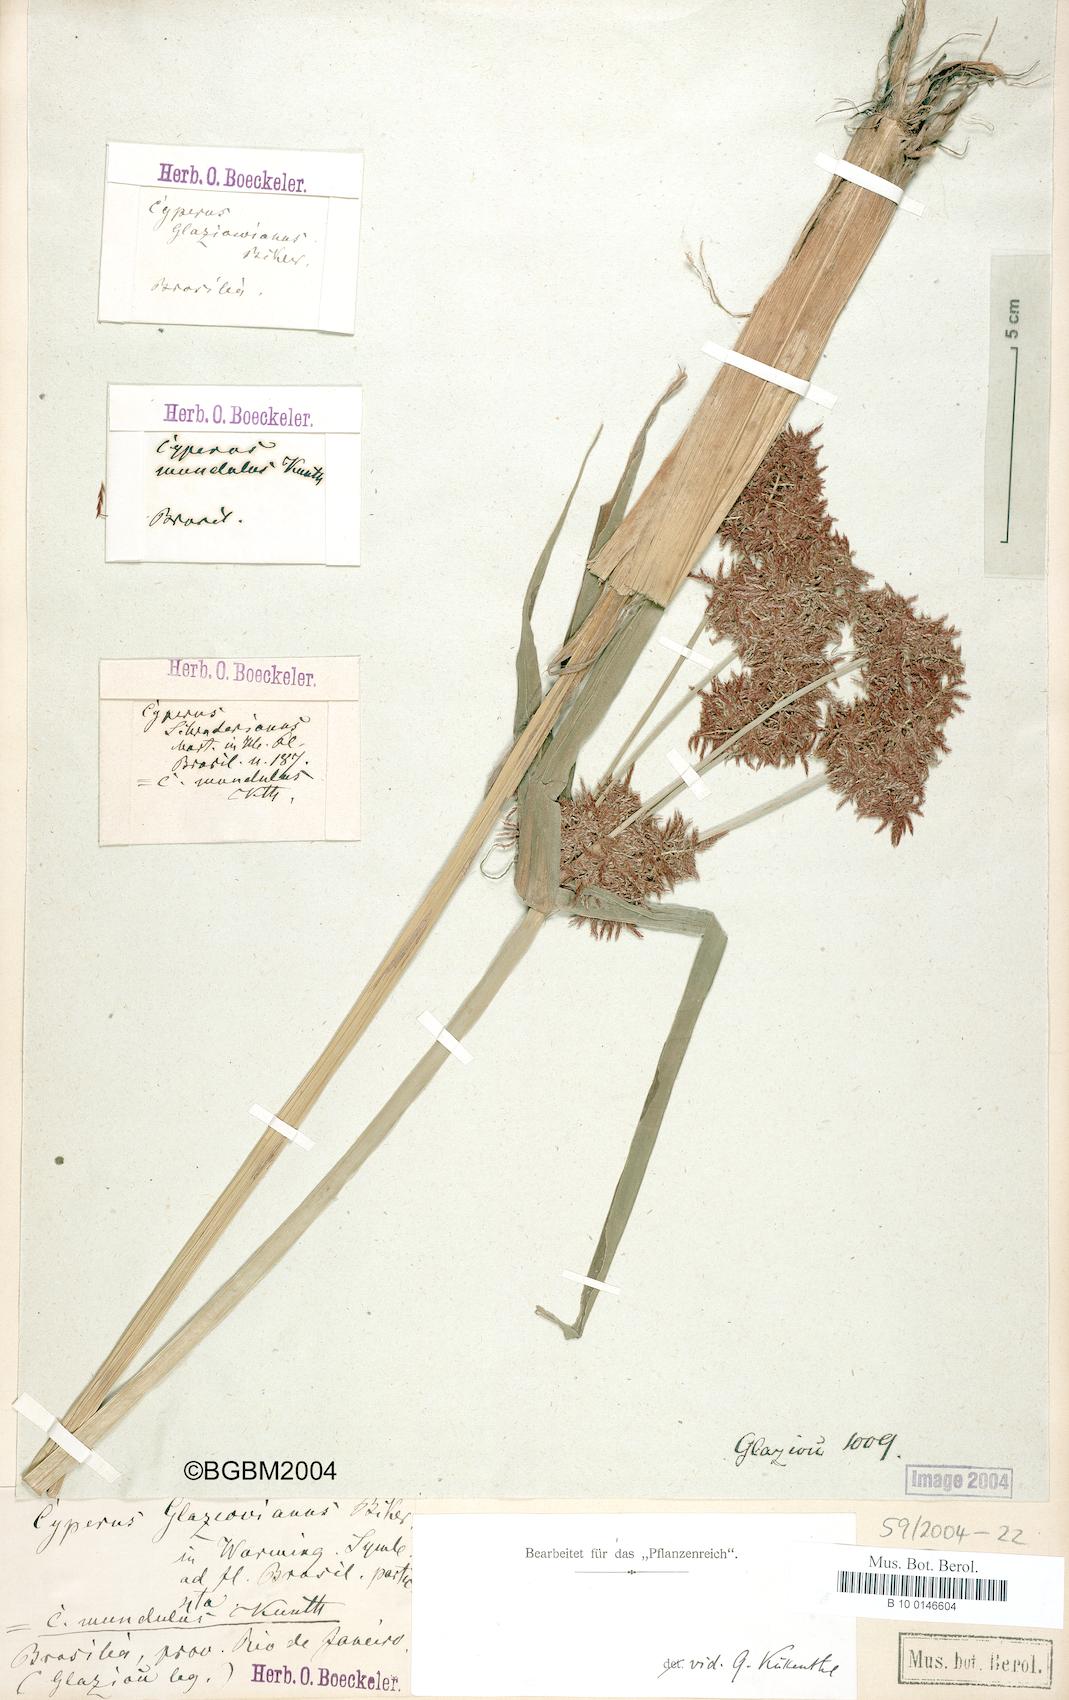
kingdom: Plantae
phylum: Tracheophyta
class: Liliopsida
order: Poales
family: Cyperaceae
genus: Cyperus
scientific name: Cyperus mundulus
